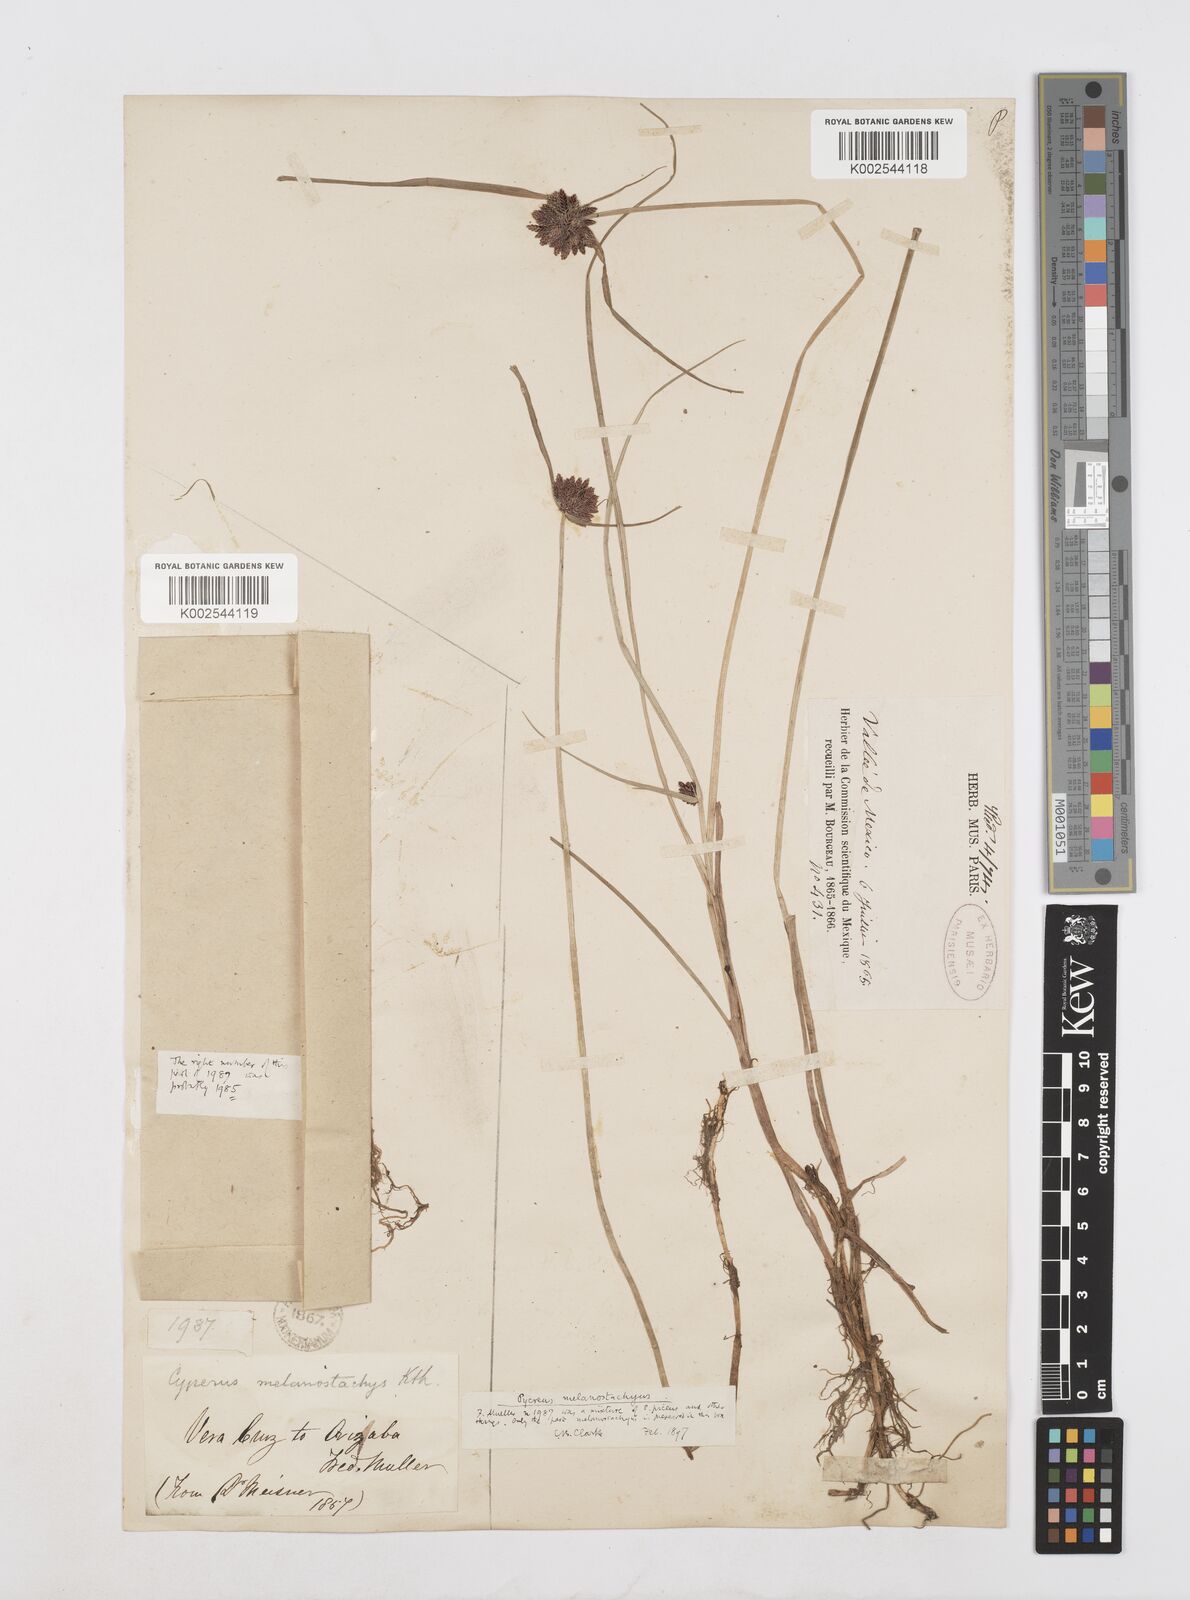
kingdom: Plantae
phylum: Tracheophyta
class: Liliopsida
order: Poales
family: Cyperaceae
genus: Cyperus
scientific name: Cyperus melanostachyus
